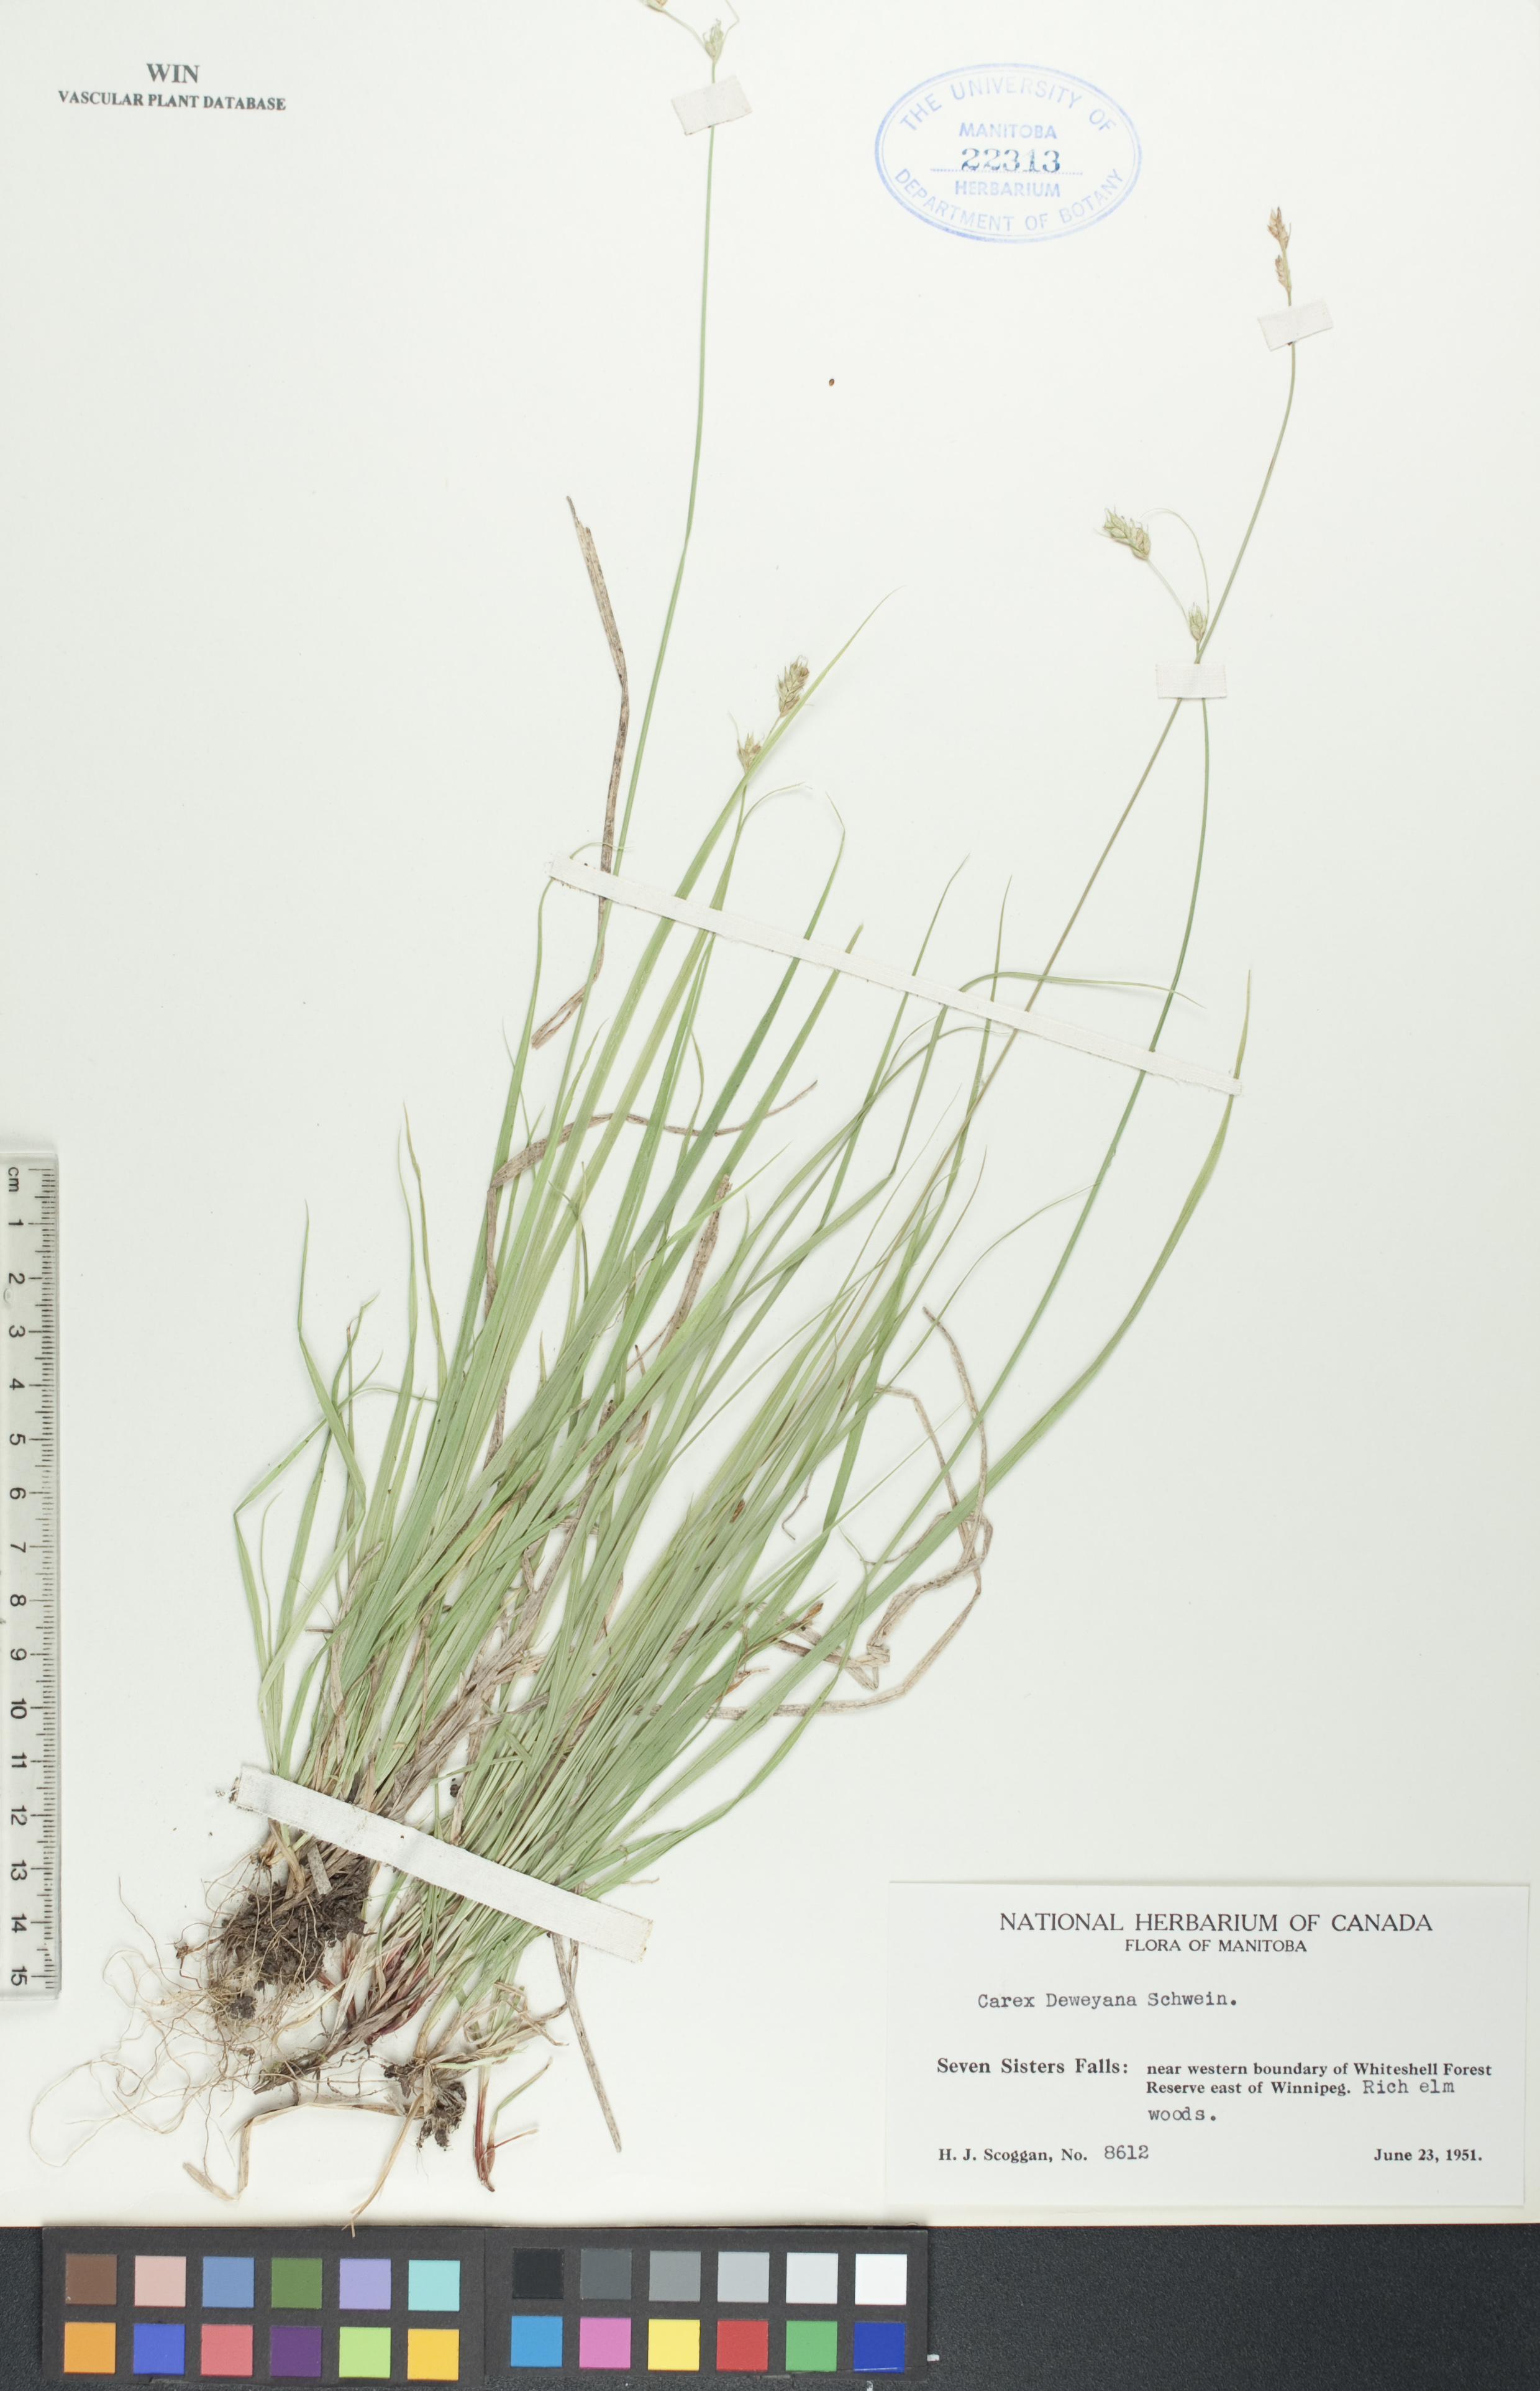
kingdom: Plantae
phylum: Tracheophyta
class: Liliopsida
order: Poales
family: Cyperaceae
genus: Carex
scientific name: Carex deweyana
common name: Dewey's sedge
